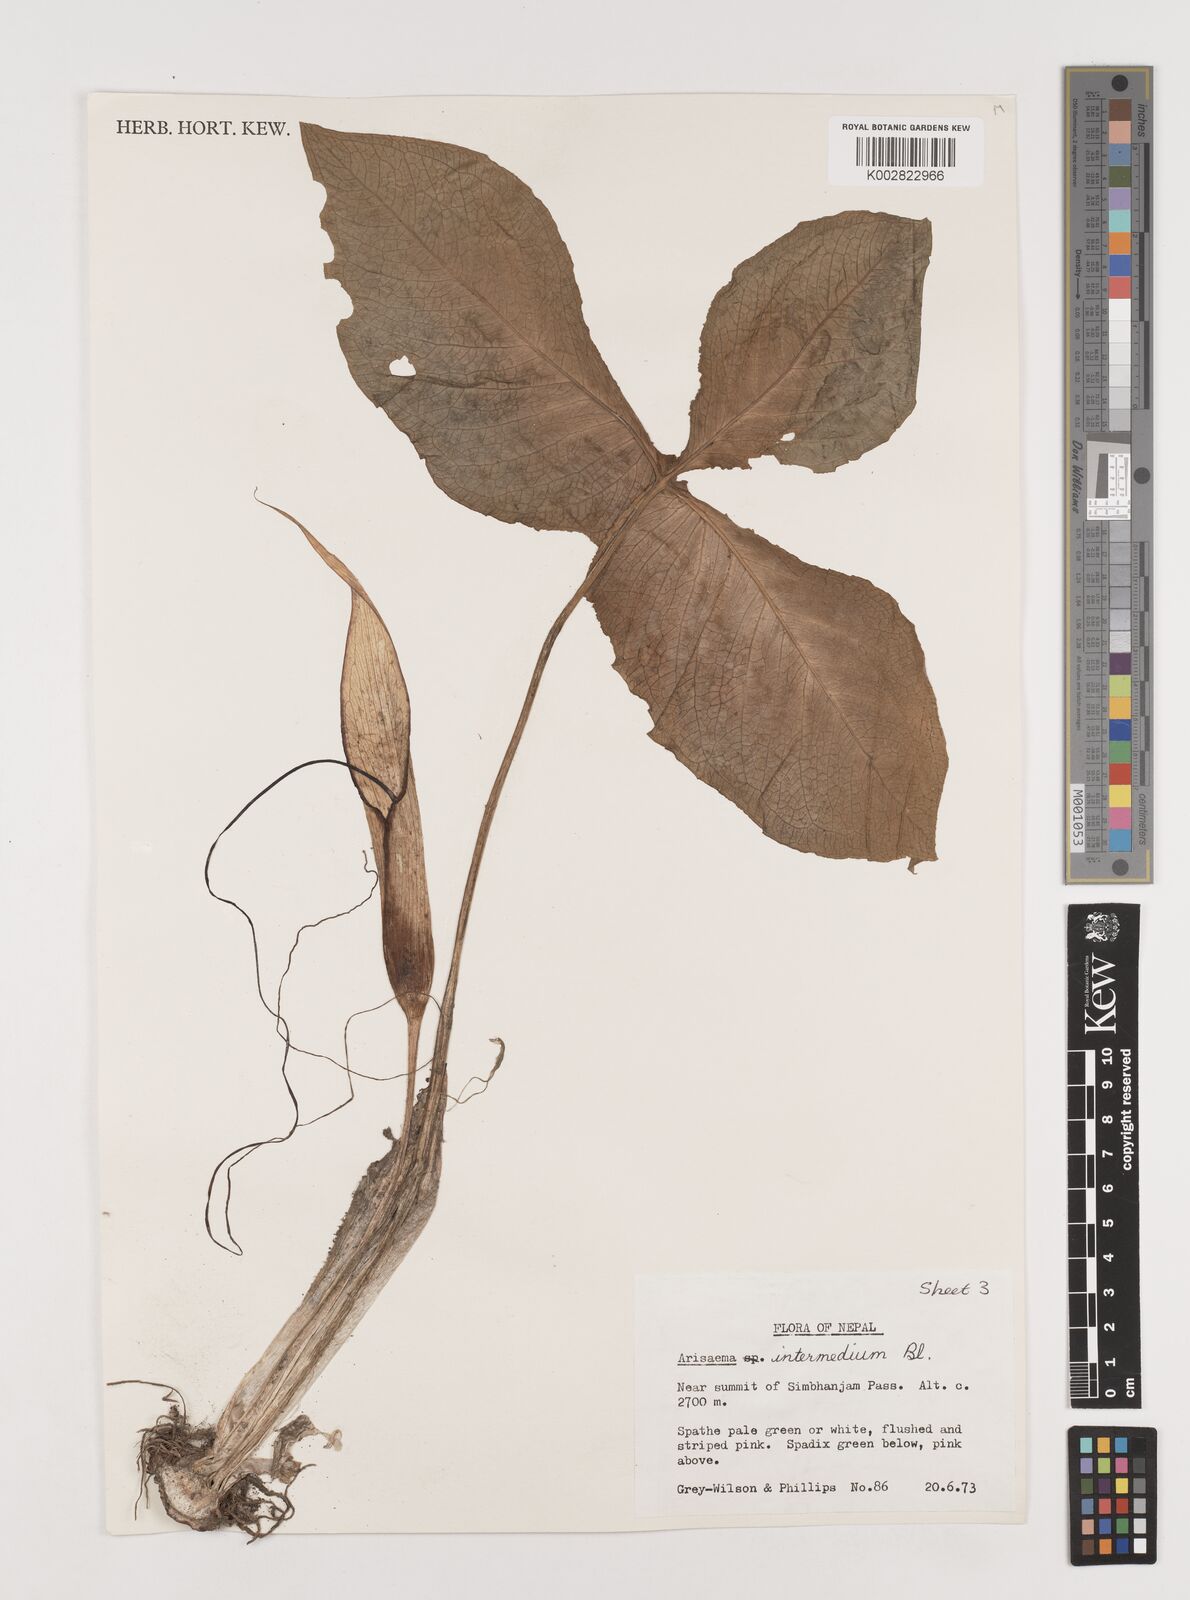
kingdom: Plantae
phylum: Tracheophyta
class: Liliopsida
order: Alismatales
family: Araceae
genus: Arisaema
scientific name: Arisaema intermedium
